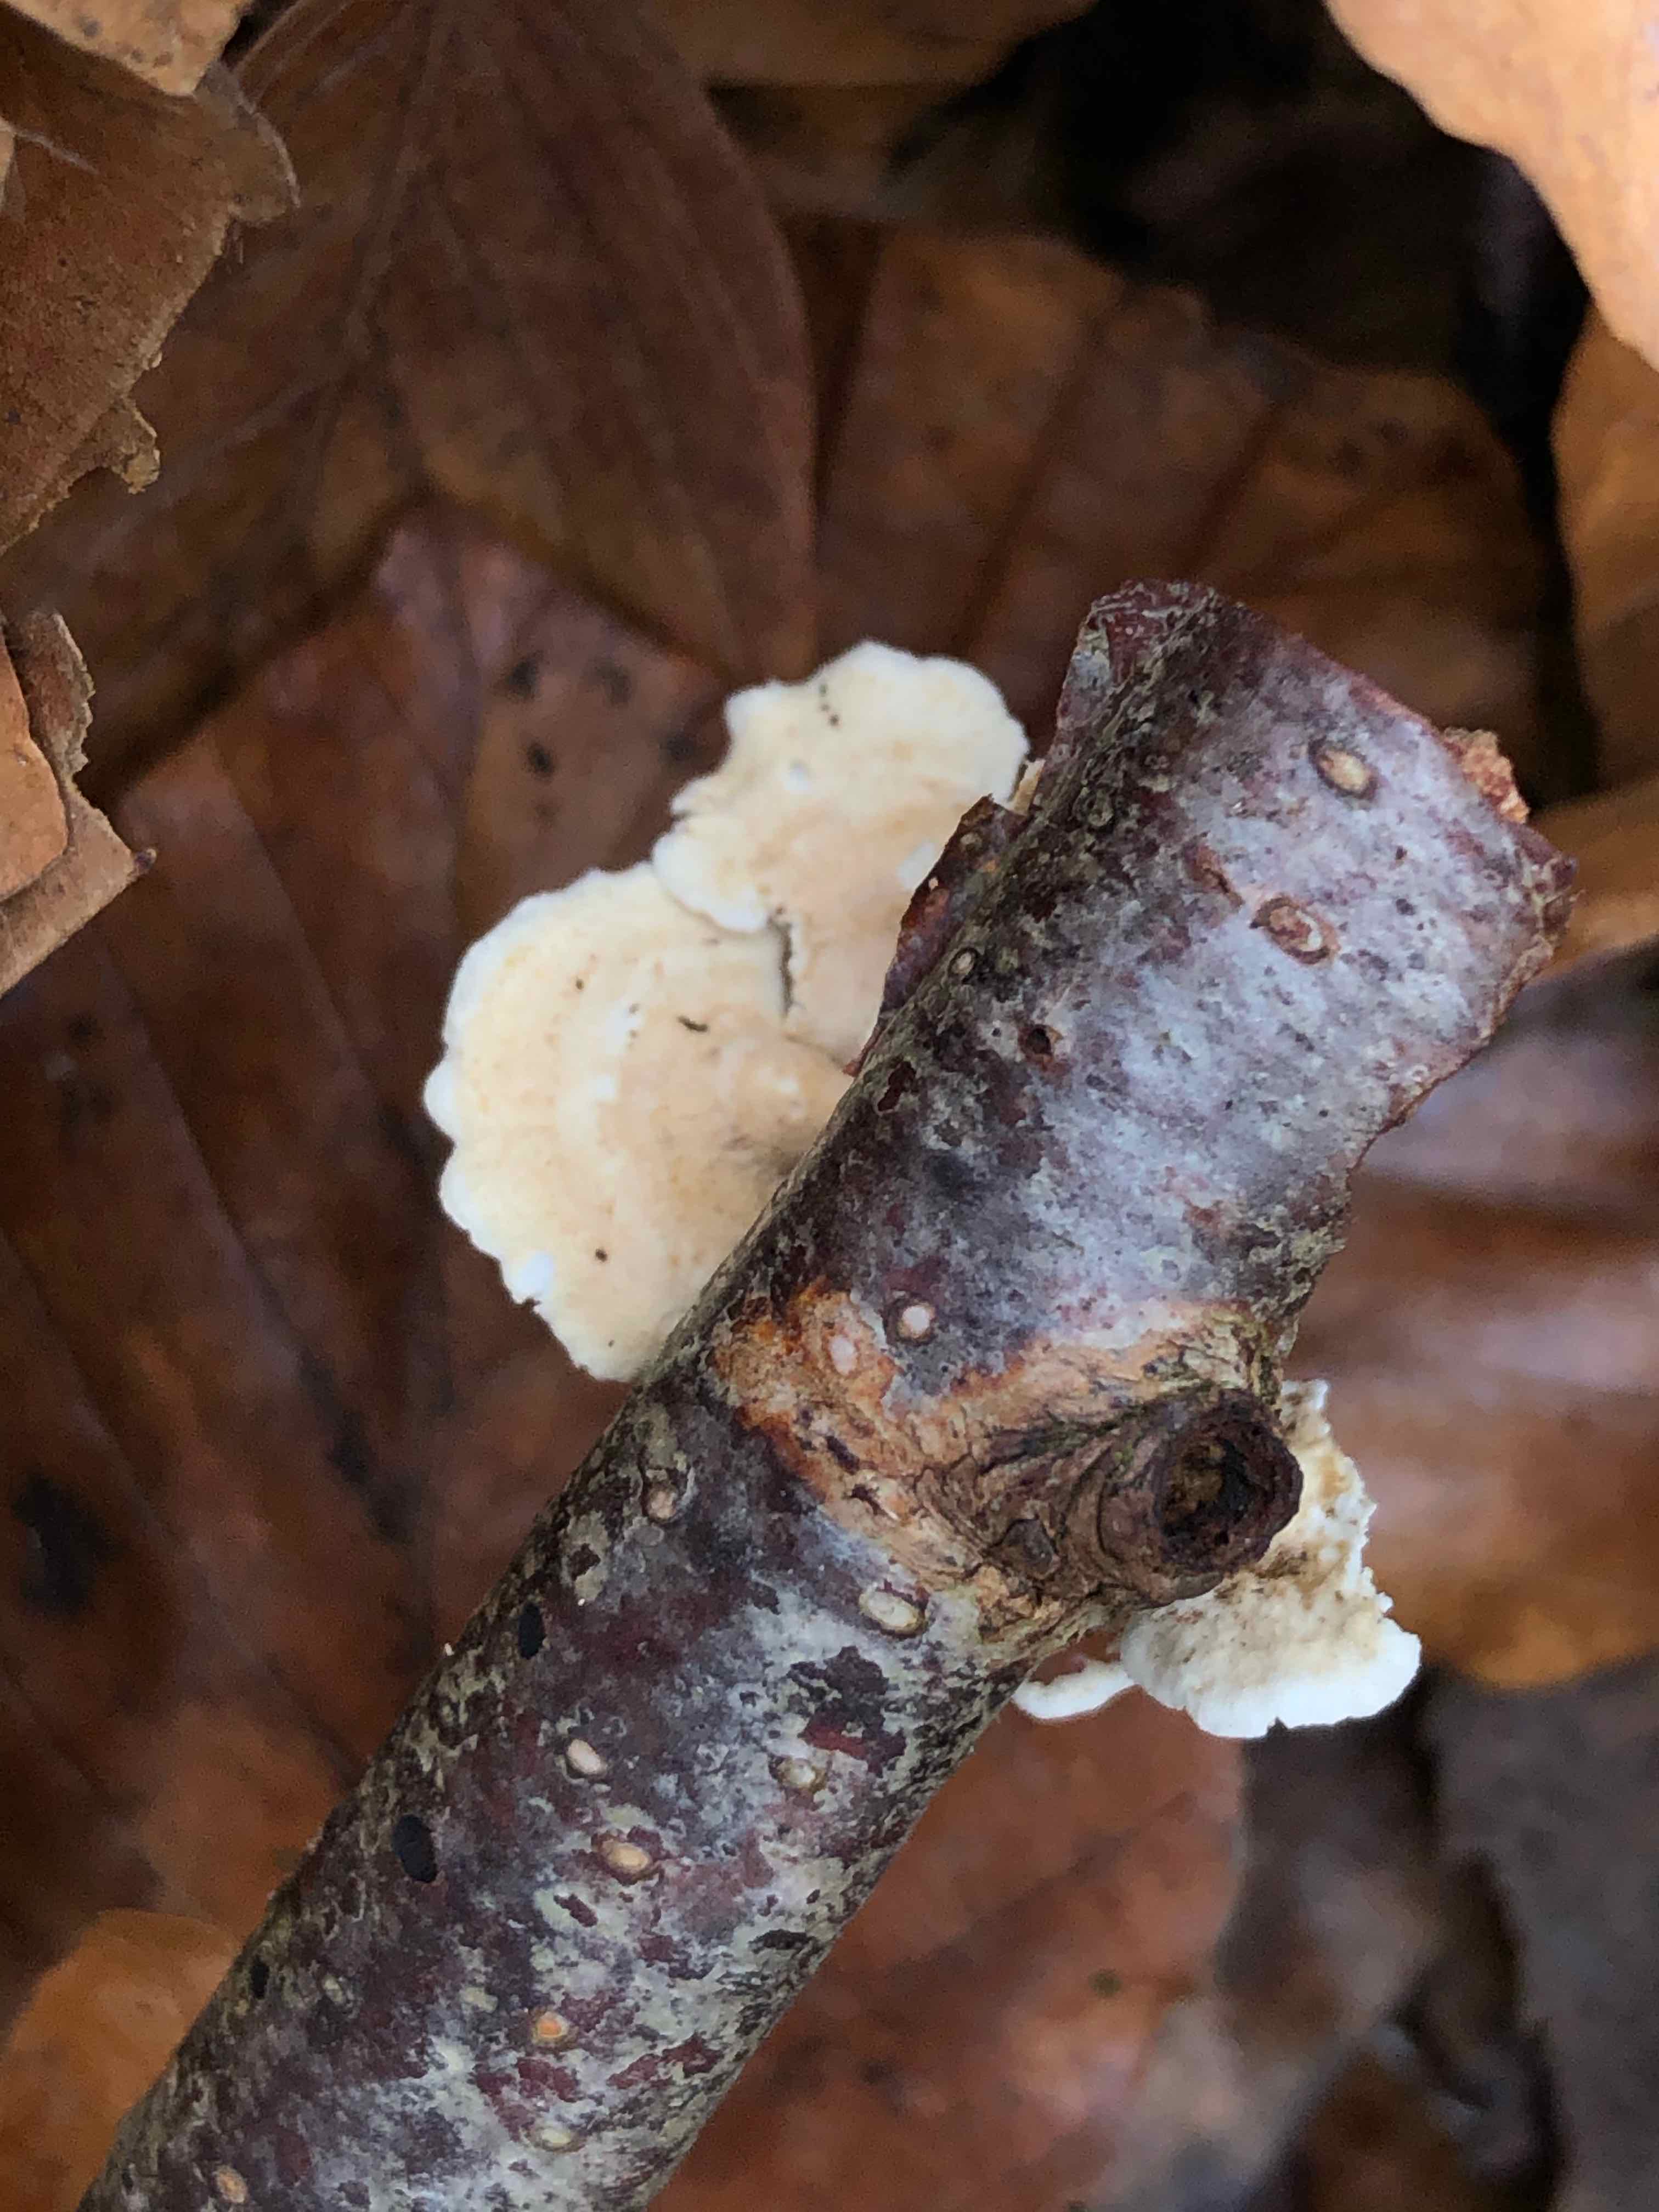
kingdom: Fungi
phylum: Basidiomycota
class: Agaricomycetes
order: Amylocorticiales
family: Amylocorticiaceae
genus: Plicaturopsis
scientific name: Plicaturopsis crispa
